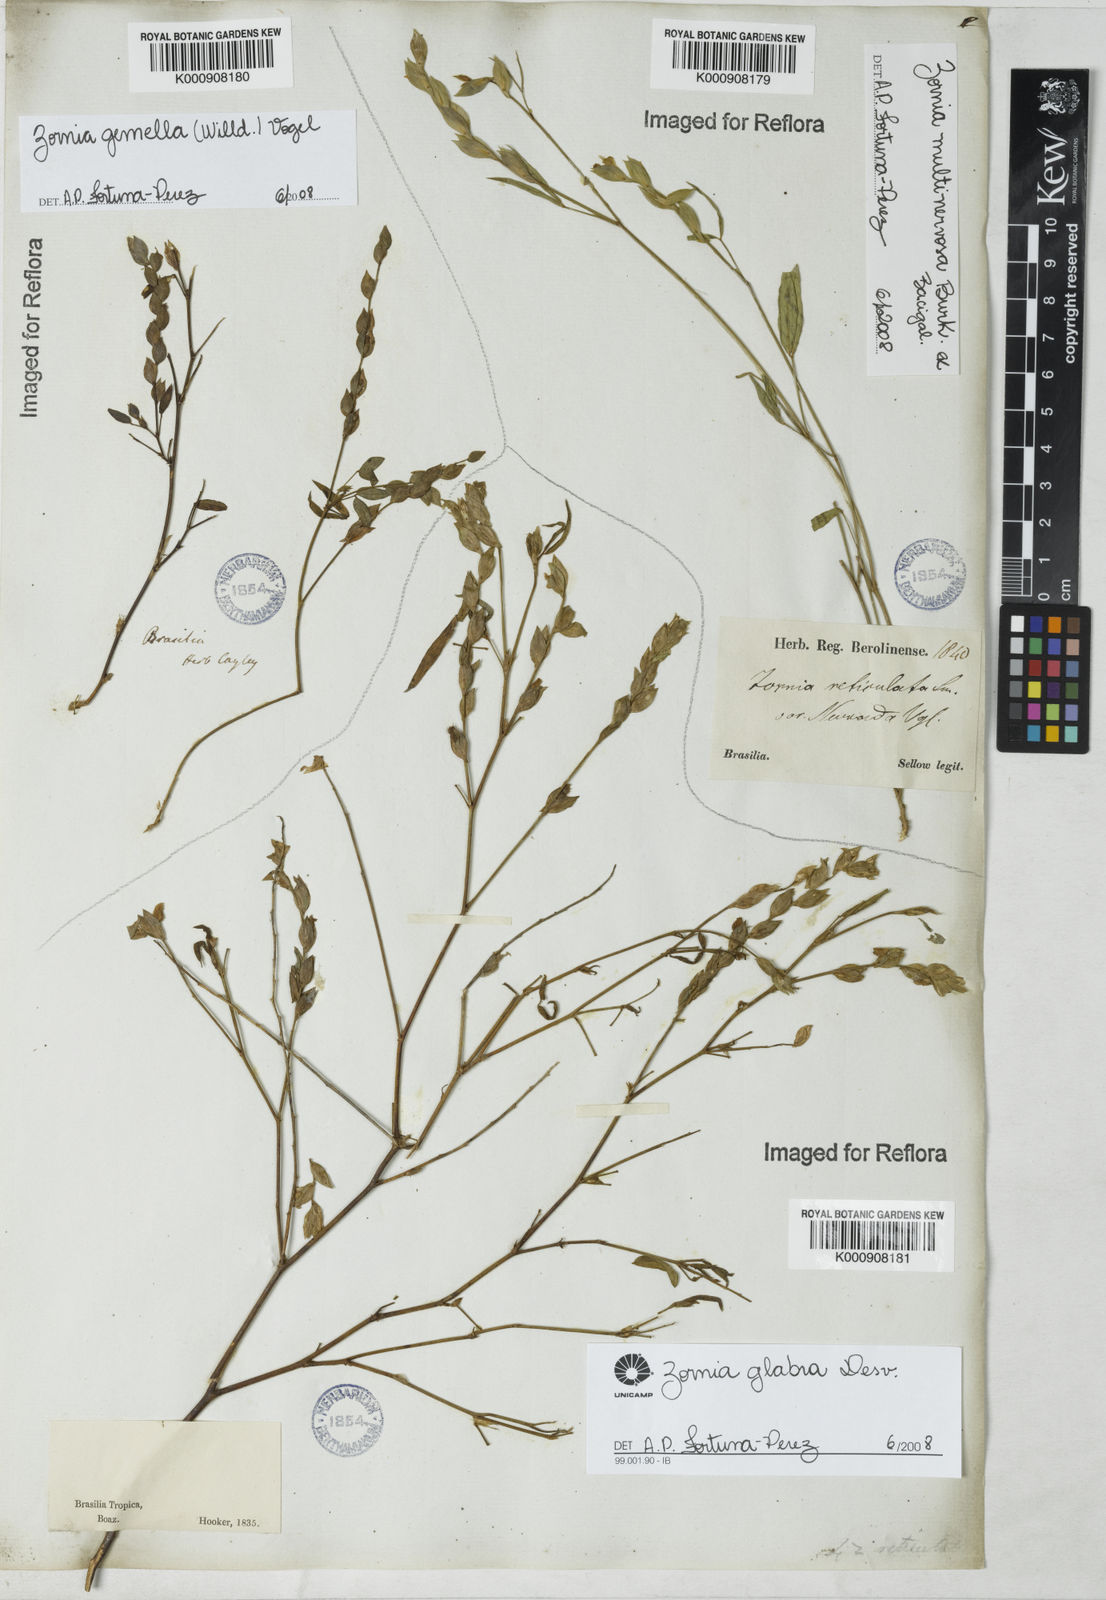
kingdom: Plantae
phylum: Tracheophyta
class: Magnoliopsida
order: Fabales
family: Fabaceae
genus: Zornia
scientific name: Zornia glabra
